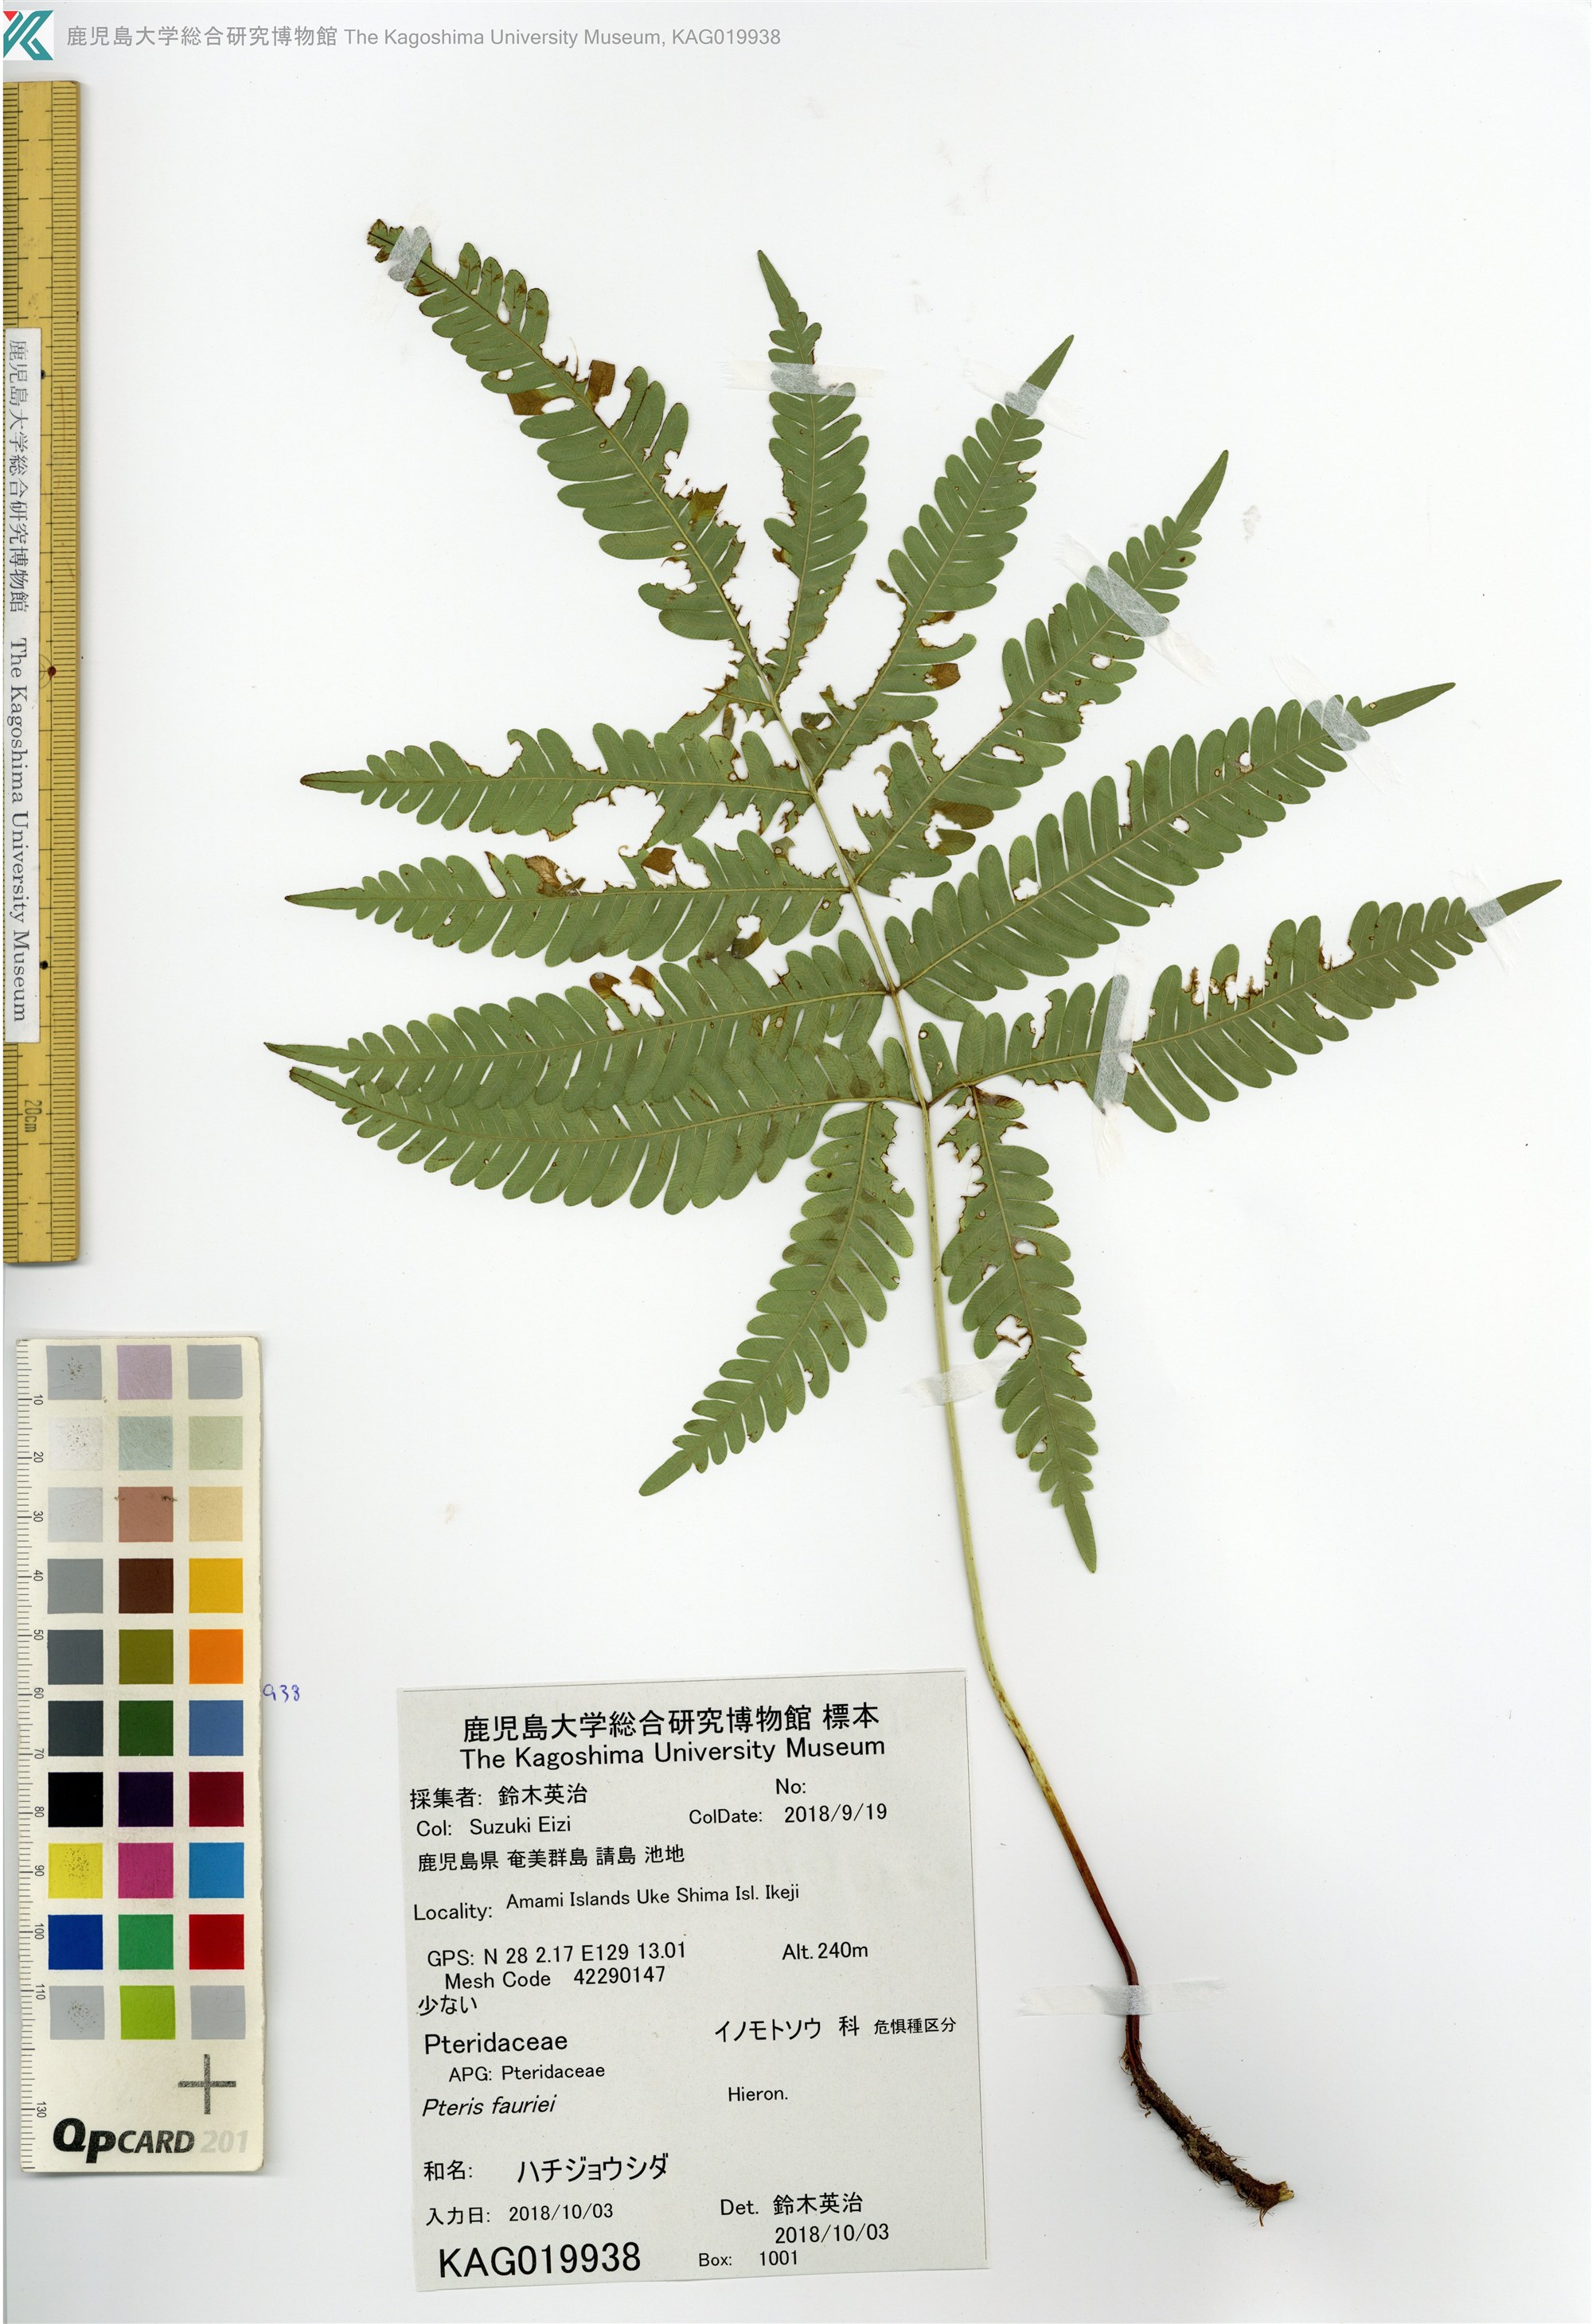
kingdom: Plantae
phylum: Tracheophyta
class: Polypodiopsida
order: Polypodiales
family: Pteridaceae
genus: Pteris
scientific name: Pteris fauriei
